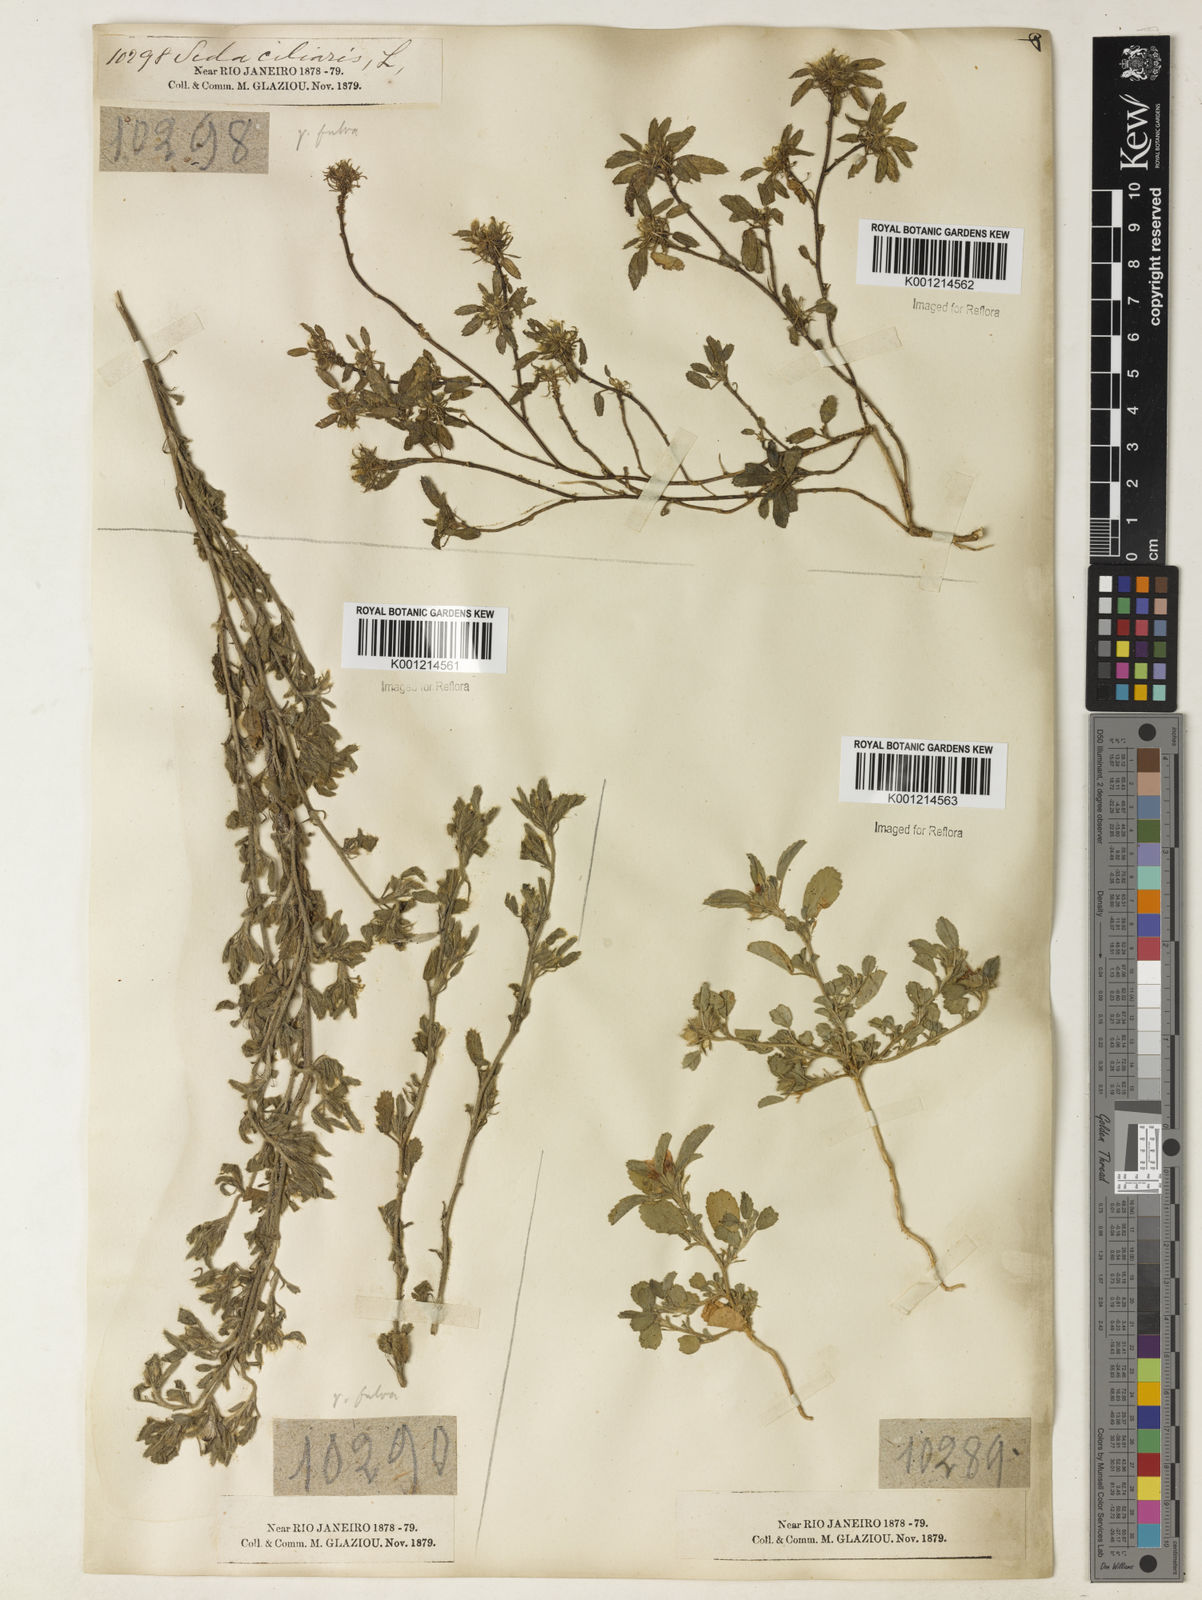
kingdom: Plantae
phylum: Tracheophyta
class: Magnoliopsida
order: Malvales
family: Malvaceae
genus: Sida
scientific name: Sida ciliaris
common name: Bracted fanpetals
